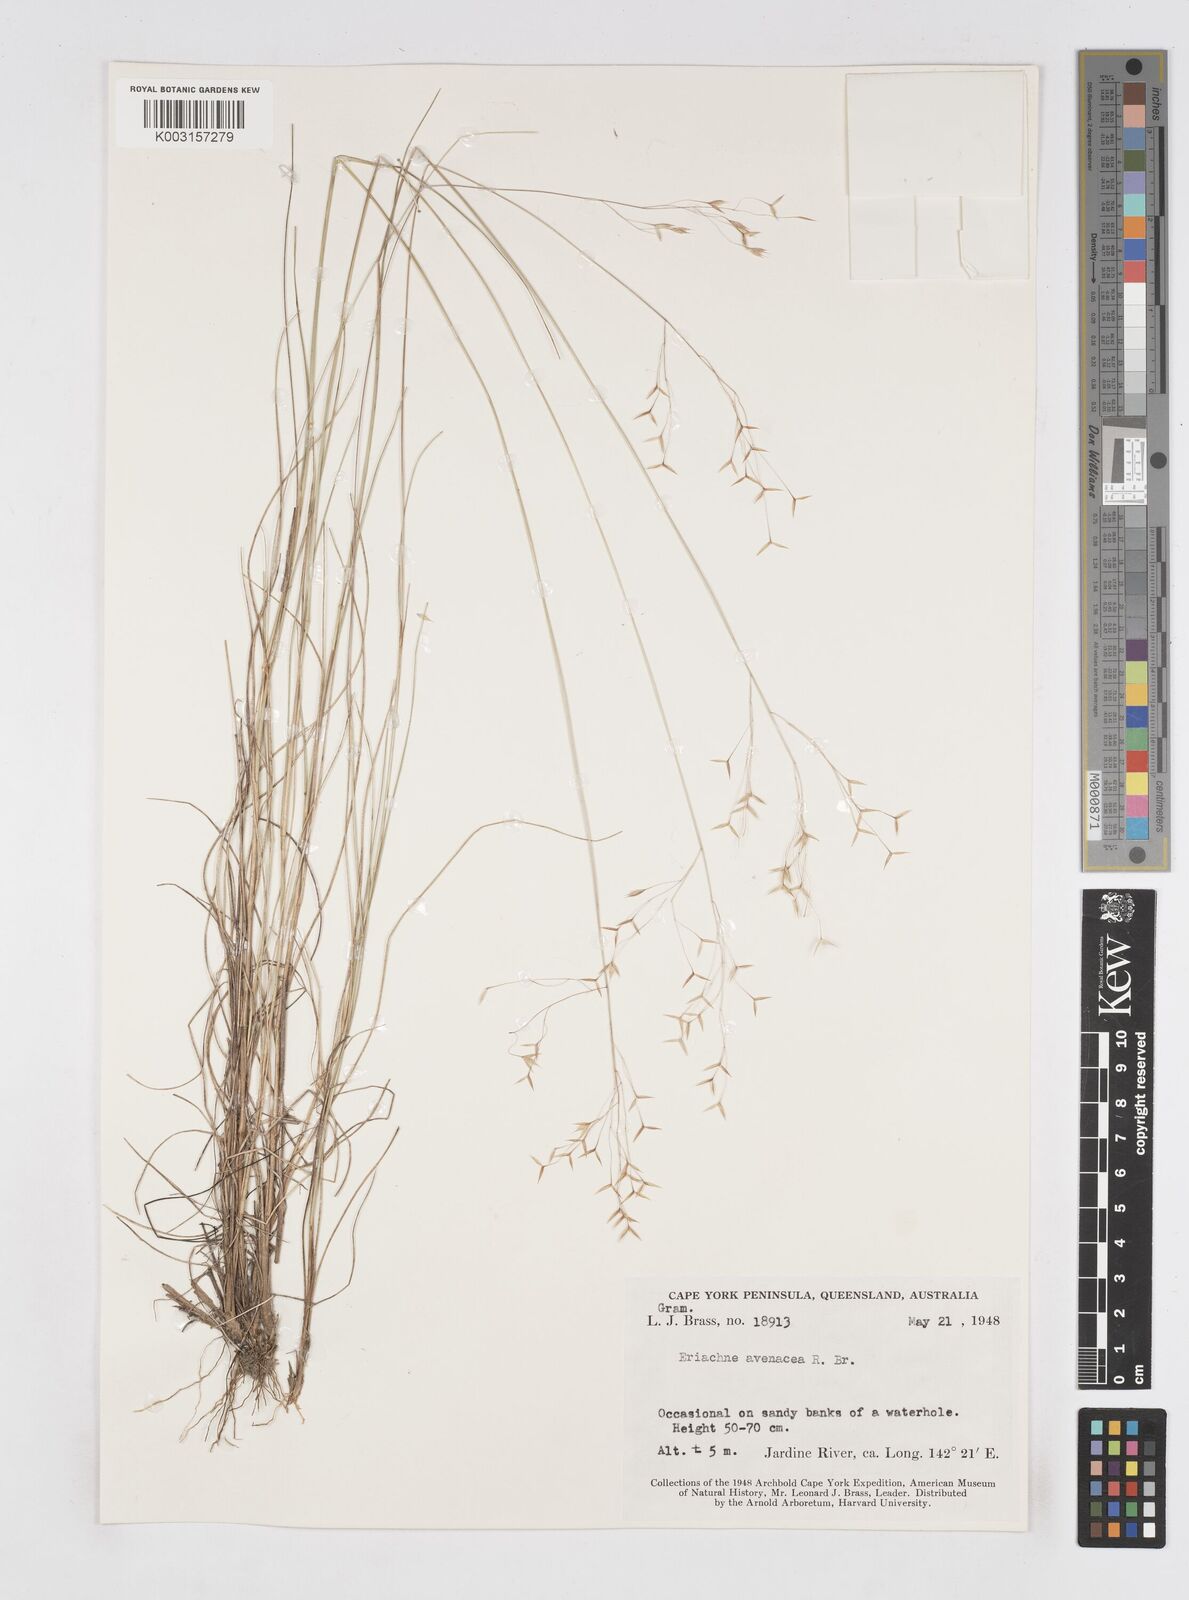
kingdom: Plantae
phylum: Tracheophyta
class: Liliopsida
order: Poales
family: Poaceae
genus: Eriachne
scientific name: Eriachne avenacea
